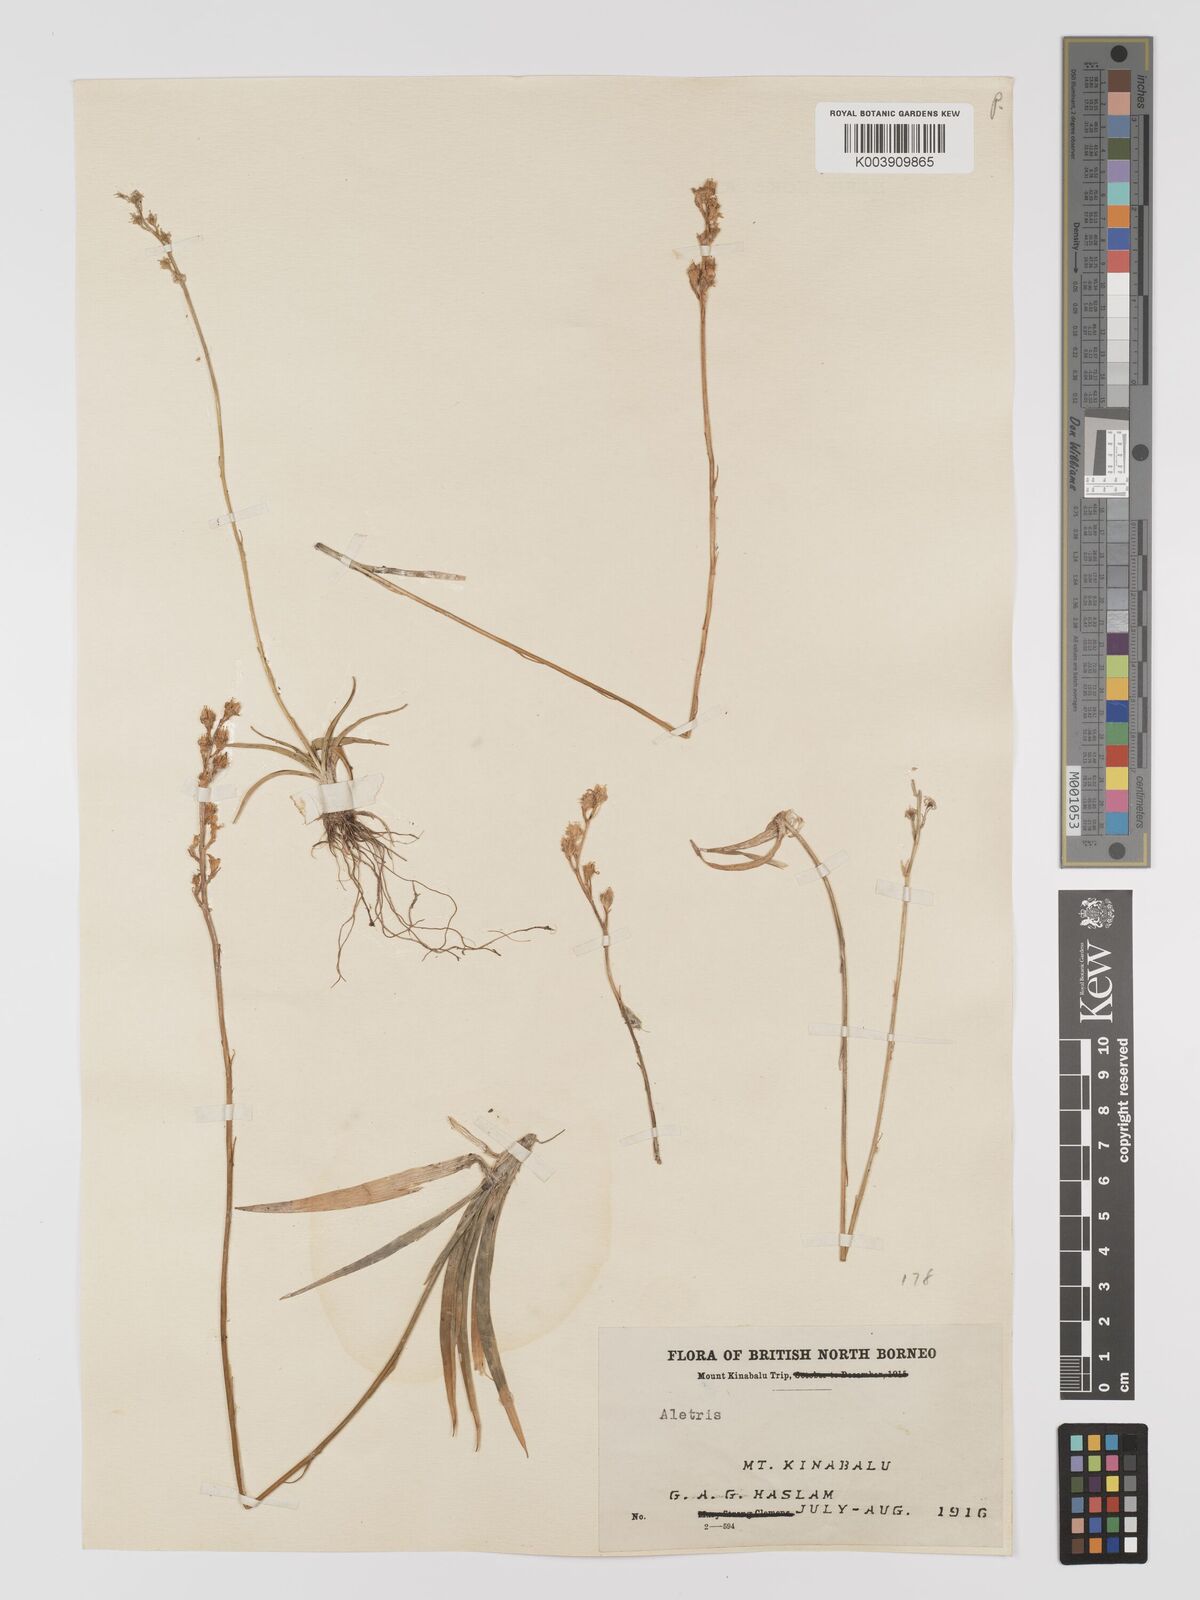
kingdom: Plantae
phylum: Tracheophyta
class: Liliopsida
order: Dioscoreales
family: Nartheciaceae
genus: Aletris
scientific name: Aletris foliolosa
